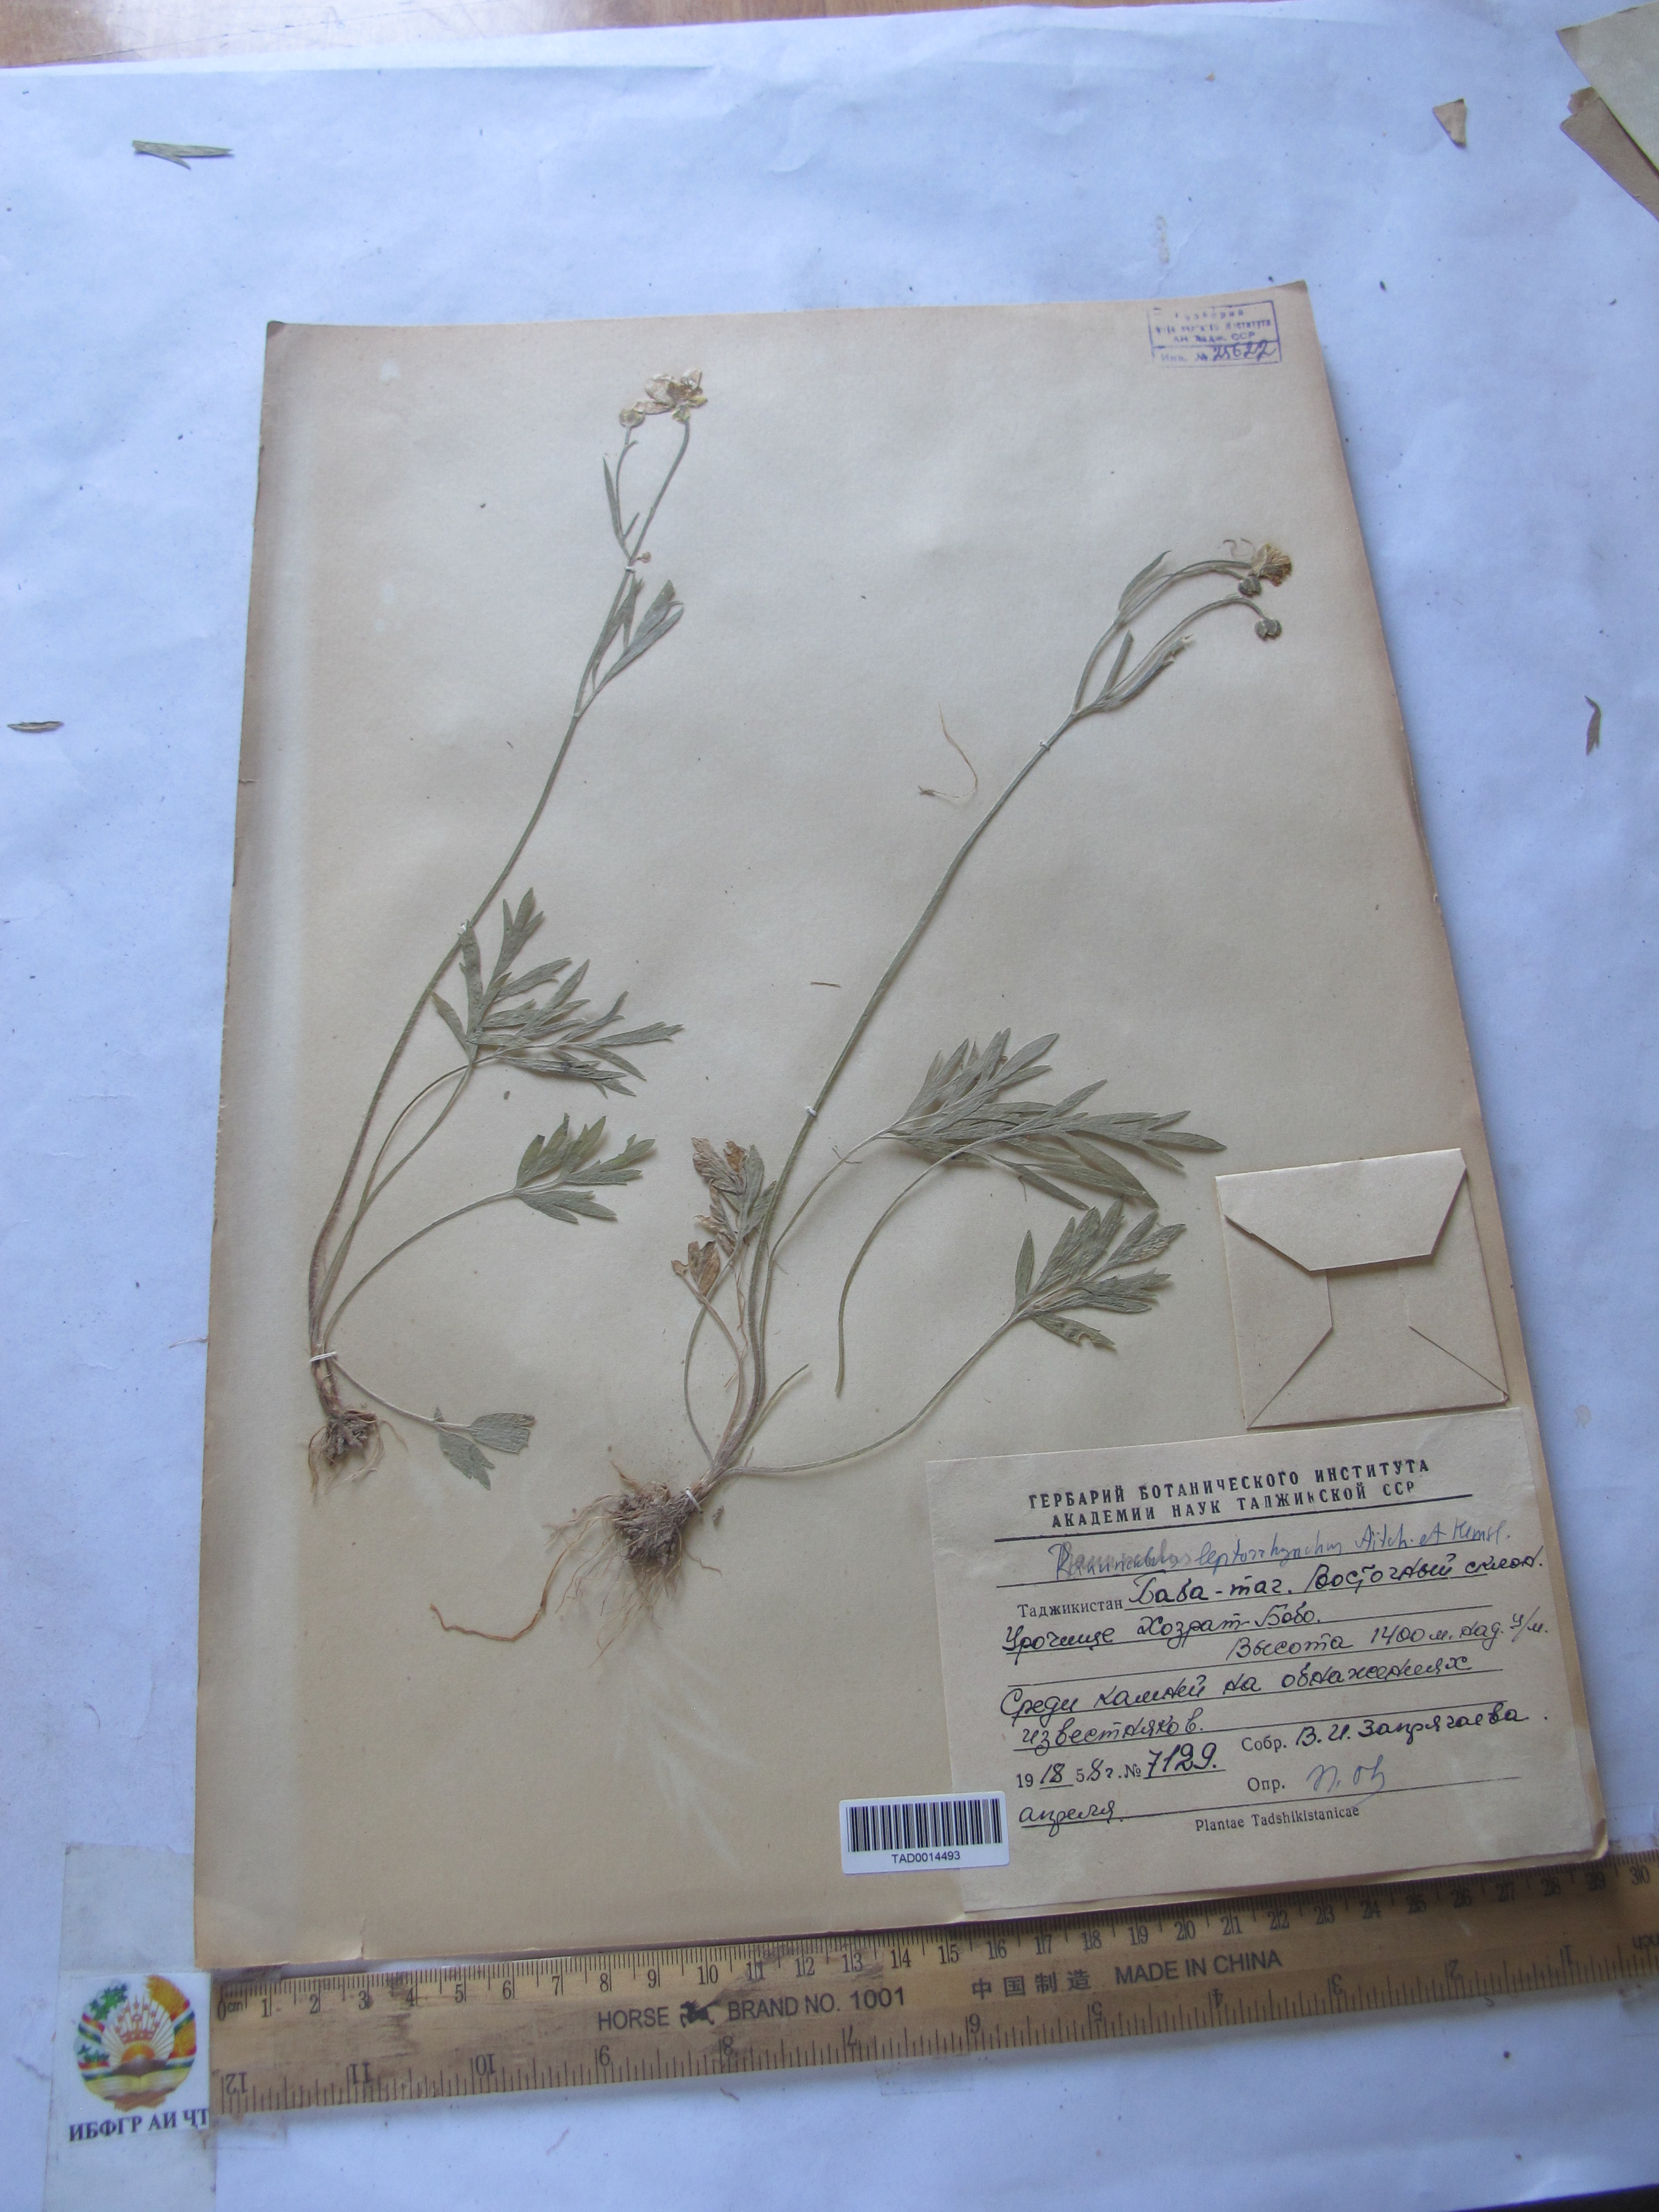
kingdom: Plantae
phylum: Tracheophyta
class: Magnoliopsida
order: Ranunculales
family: Ranunculaceae
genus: Ranunculus
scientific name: Ranunculus leptorrhynchus
